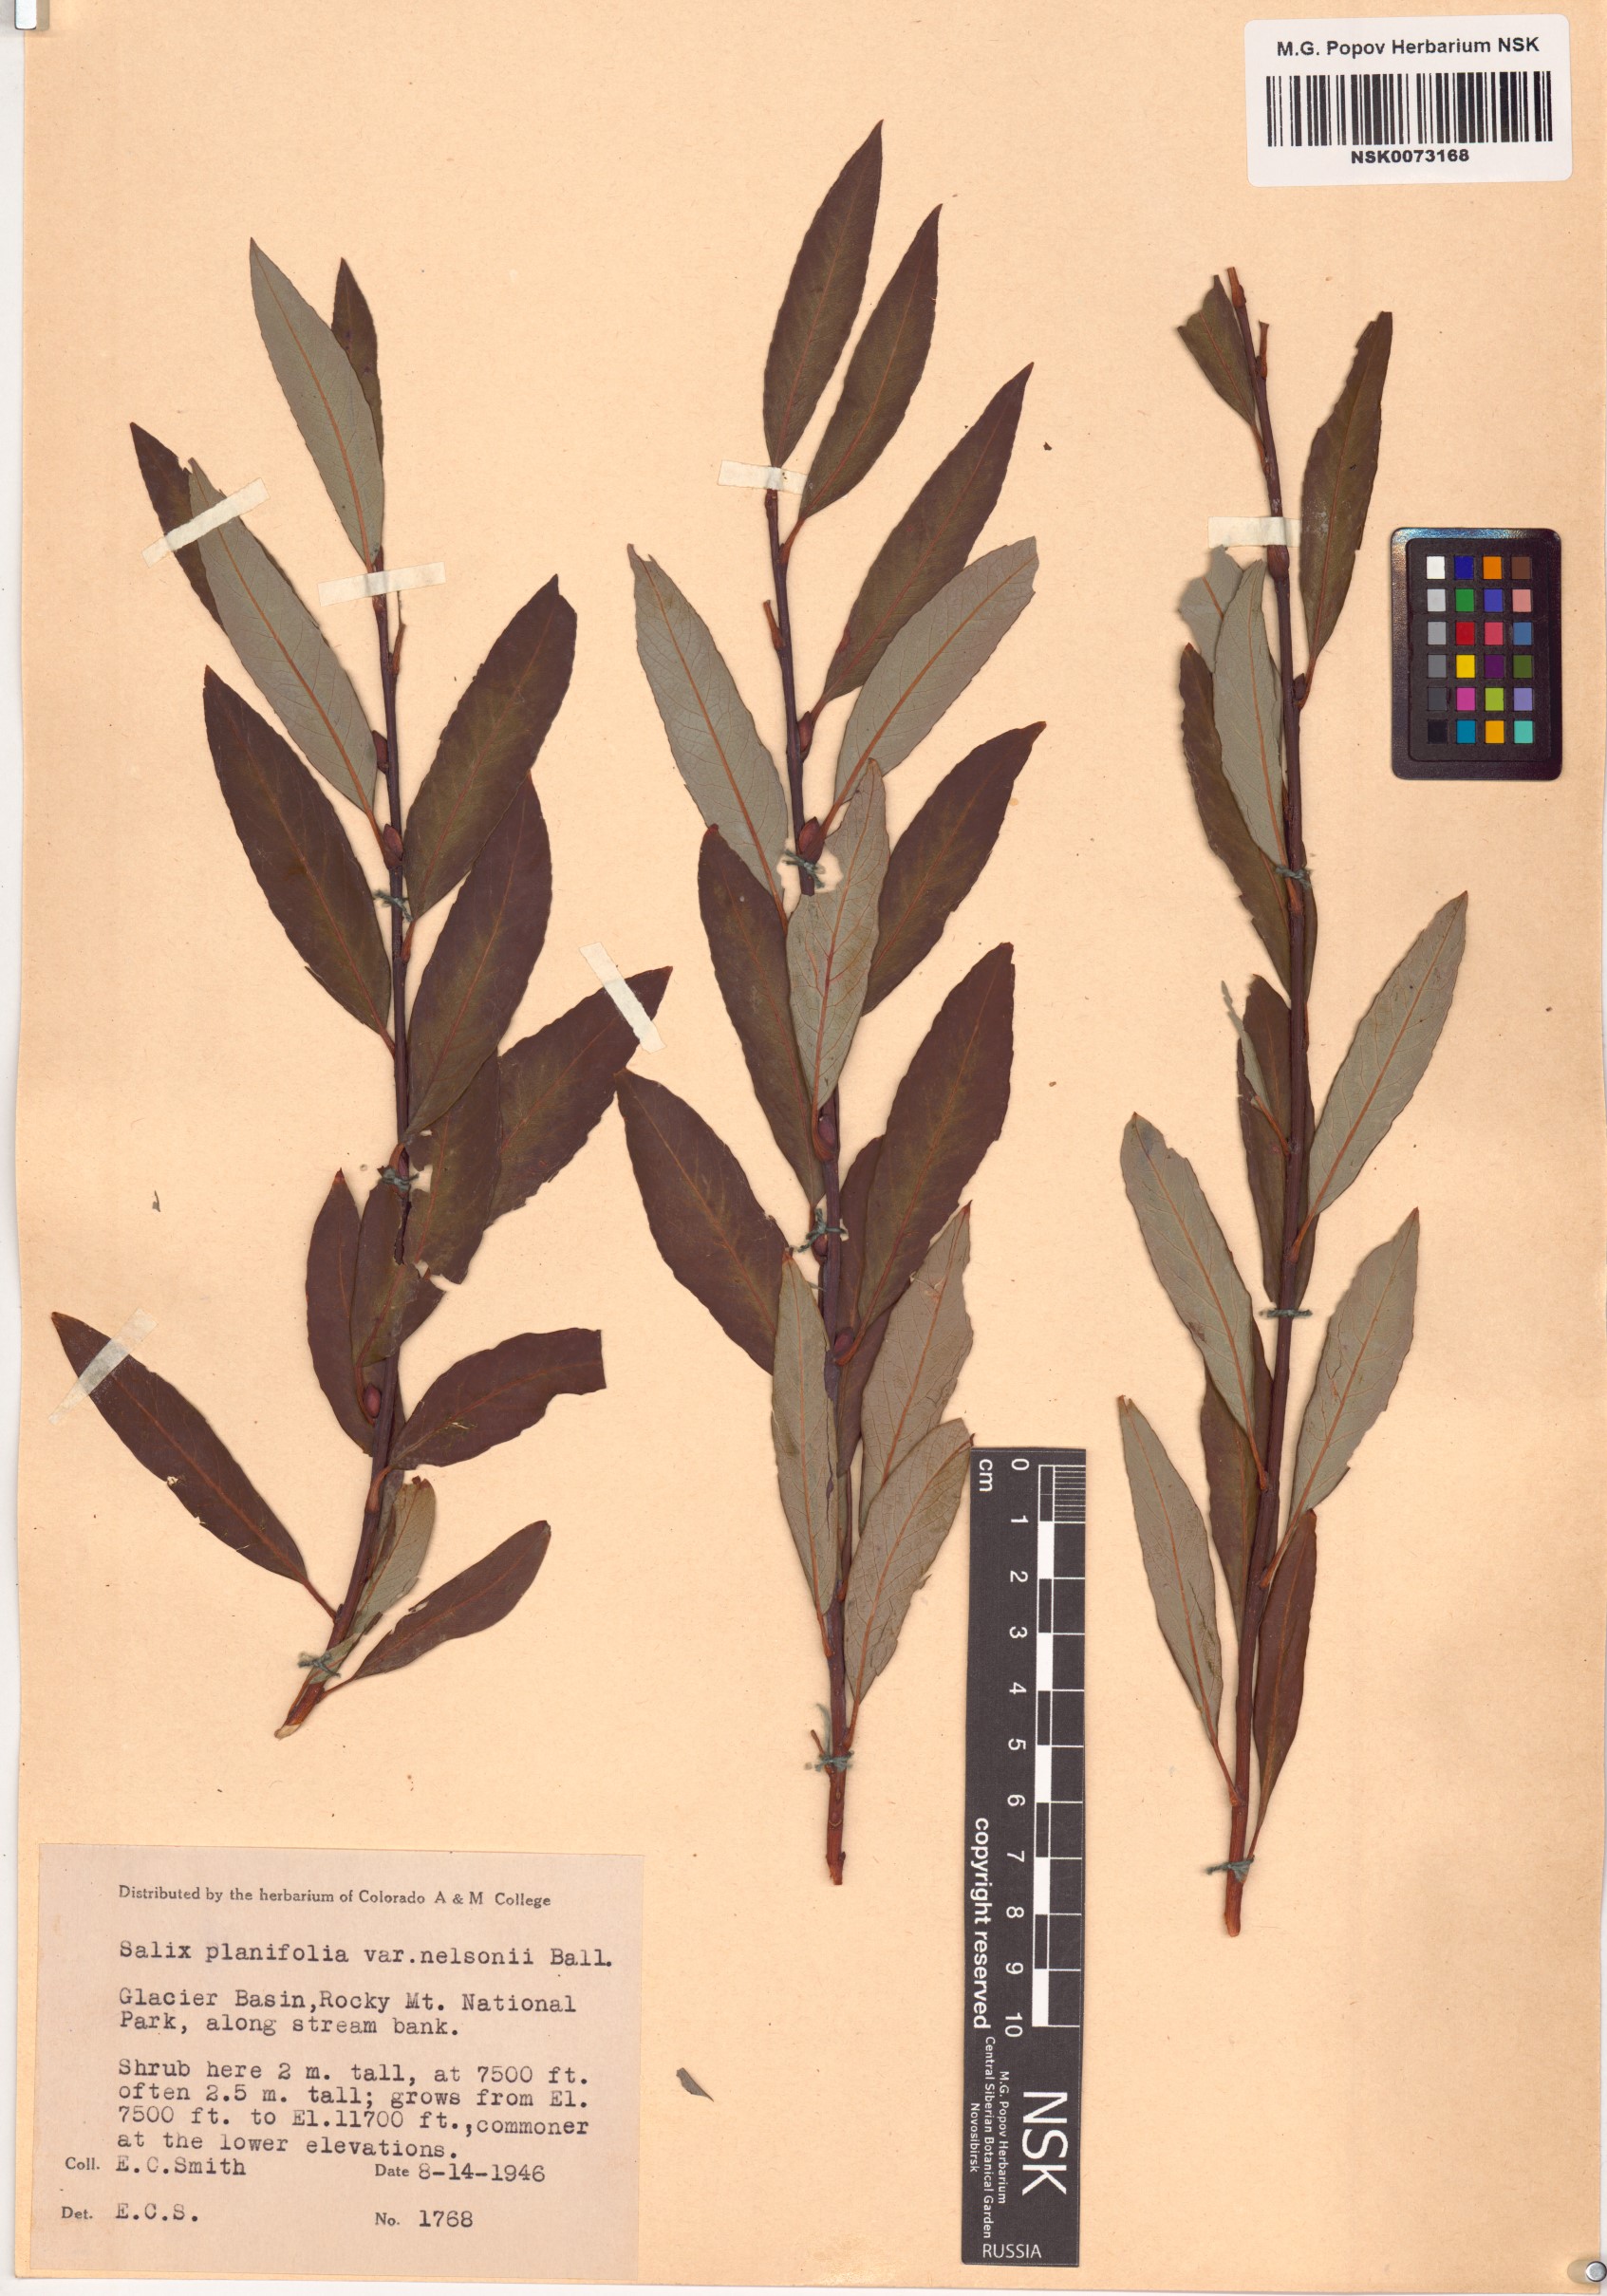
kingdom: Plantae
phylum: Tracheophyta
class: Magnoliopsida
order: Malpighiales
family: Salicaceae
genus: Salix
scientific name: Salix planifolia
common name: Mountain willow
